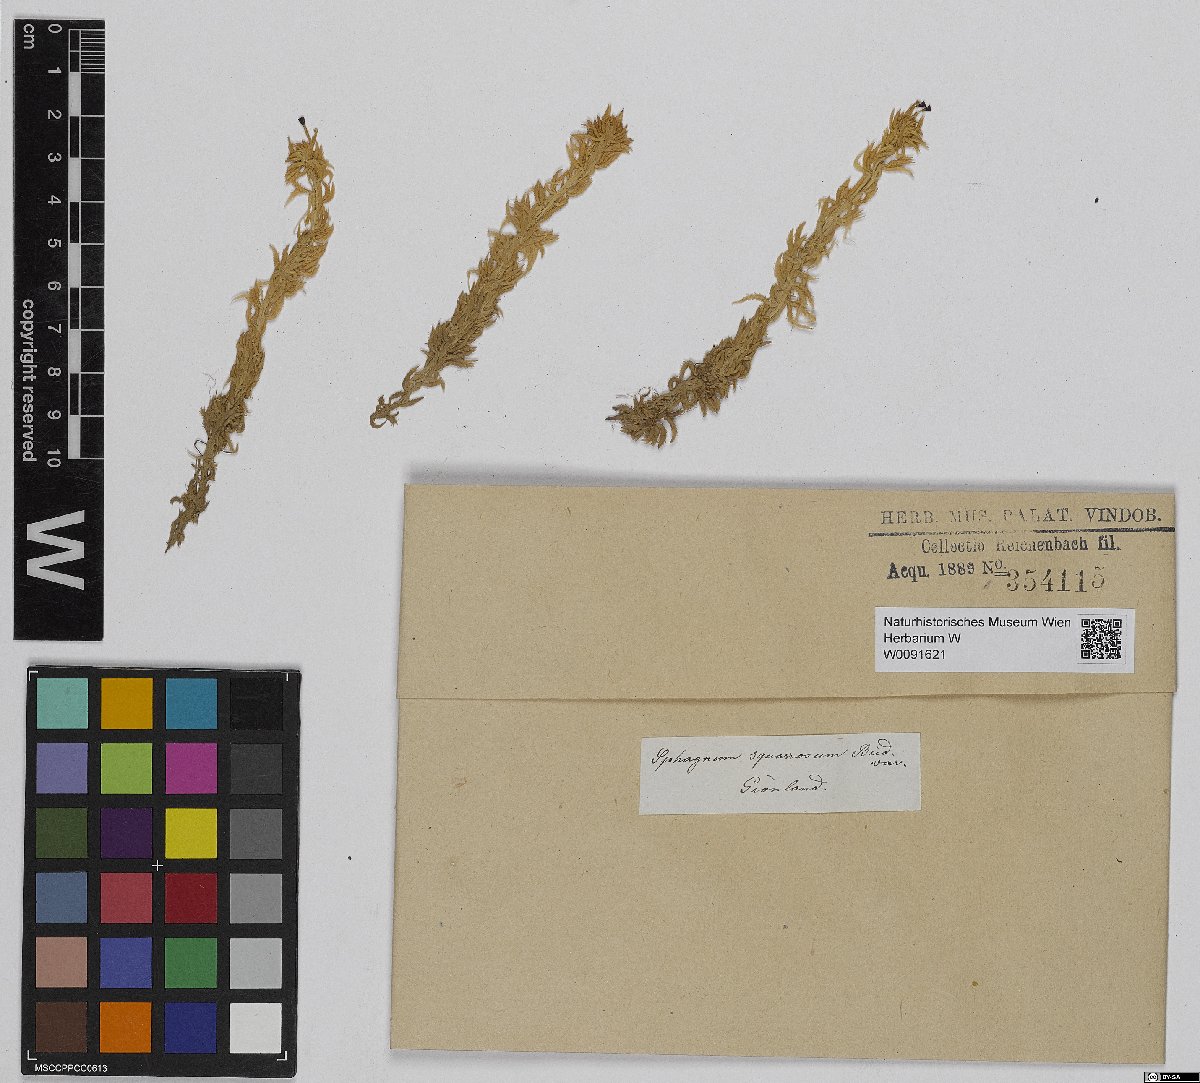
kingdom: Plantae
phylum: Bryophyta
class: Sphagnopsida
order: Sphagnales
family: Sphagnaceae
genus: Sphagnum
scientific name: Sphagnum squarrosum
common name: Shaggy peat moss
